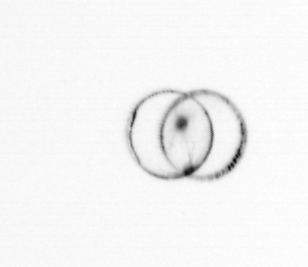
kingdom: Chromista
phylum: Myzozoa
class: Dinophyceae
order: Noctilucales
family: Noctilucaceae
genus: Noctiluca
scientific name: Noctiluca scintillans
